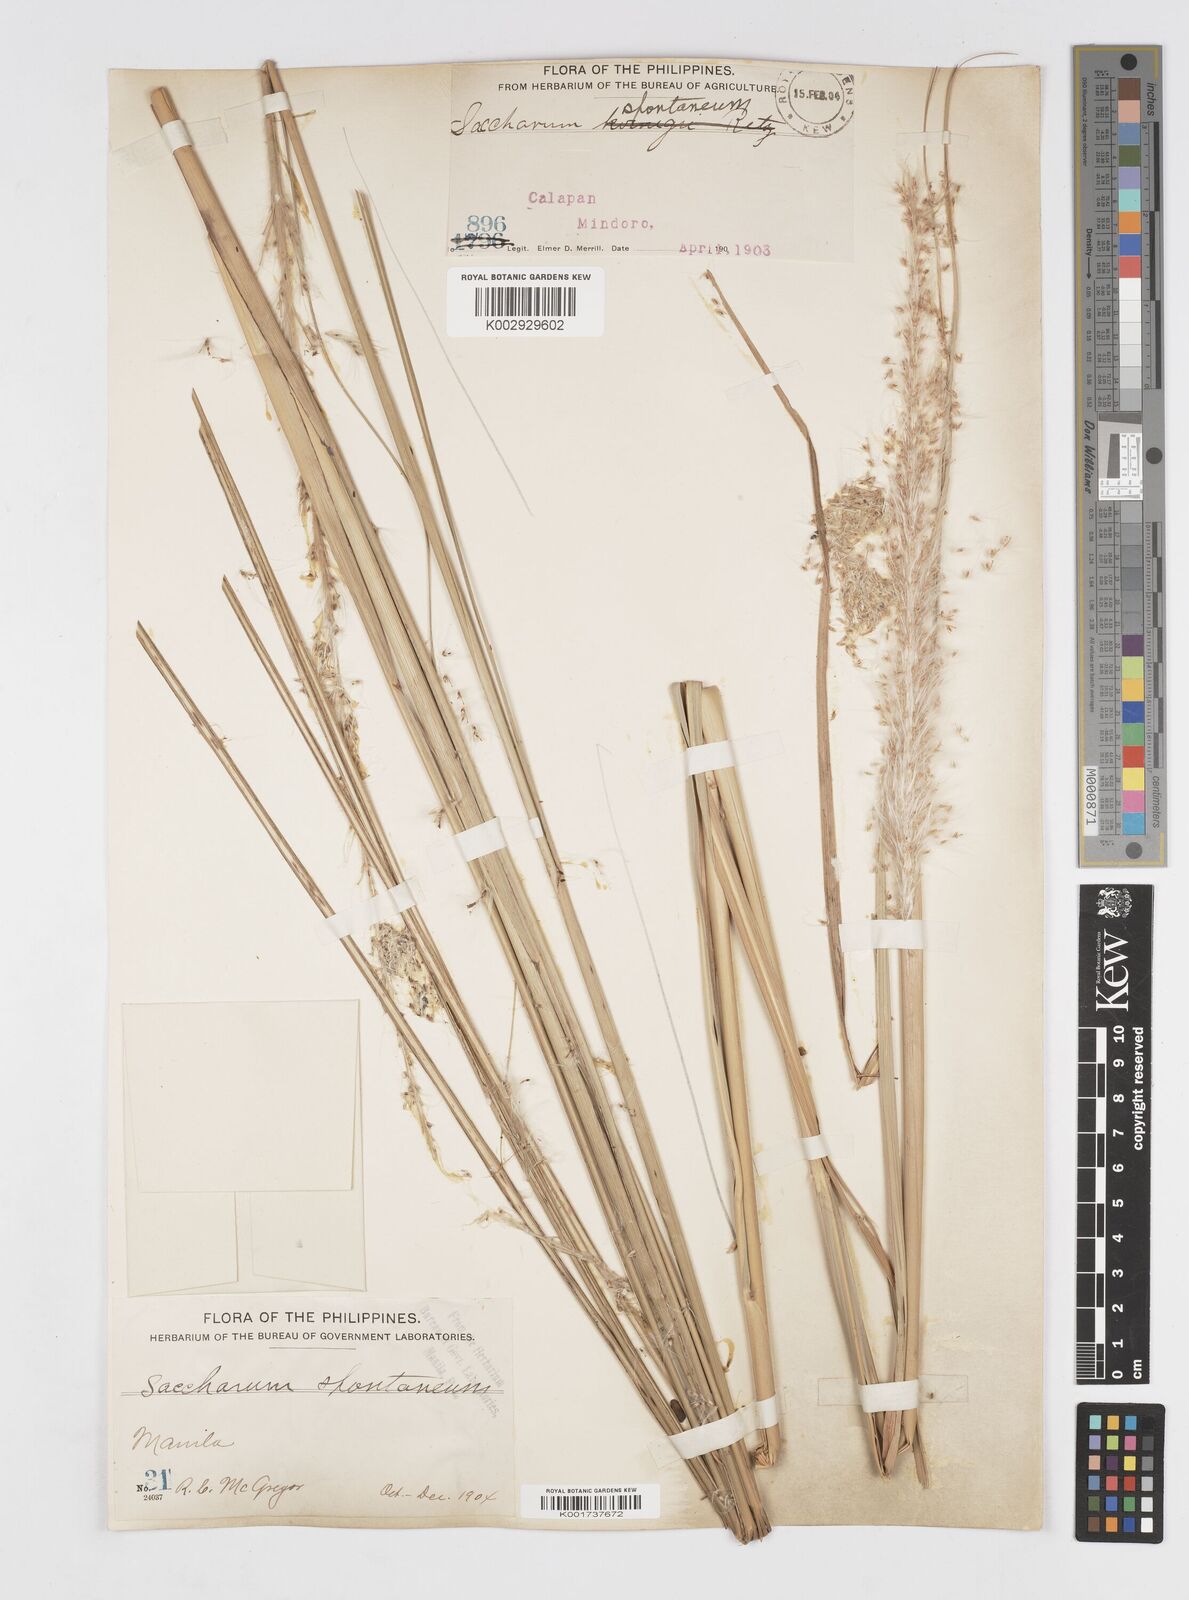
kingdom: Plantae
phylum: Tracheophyta
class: Liliopsida
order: Poales
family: Poaceae
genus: Saccharum
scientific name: Saccharum spontaneum
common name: Wild sugarcane
